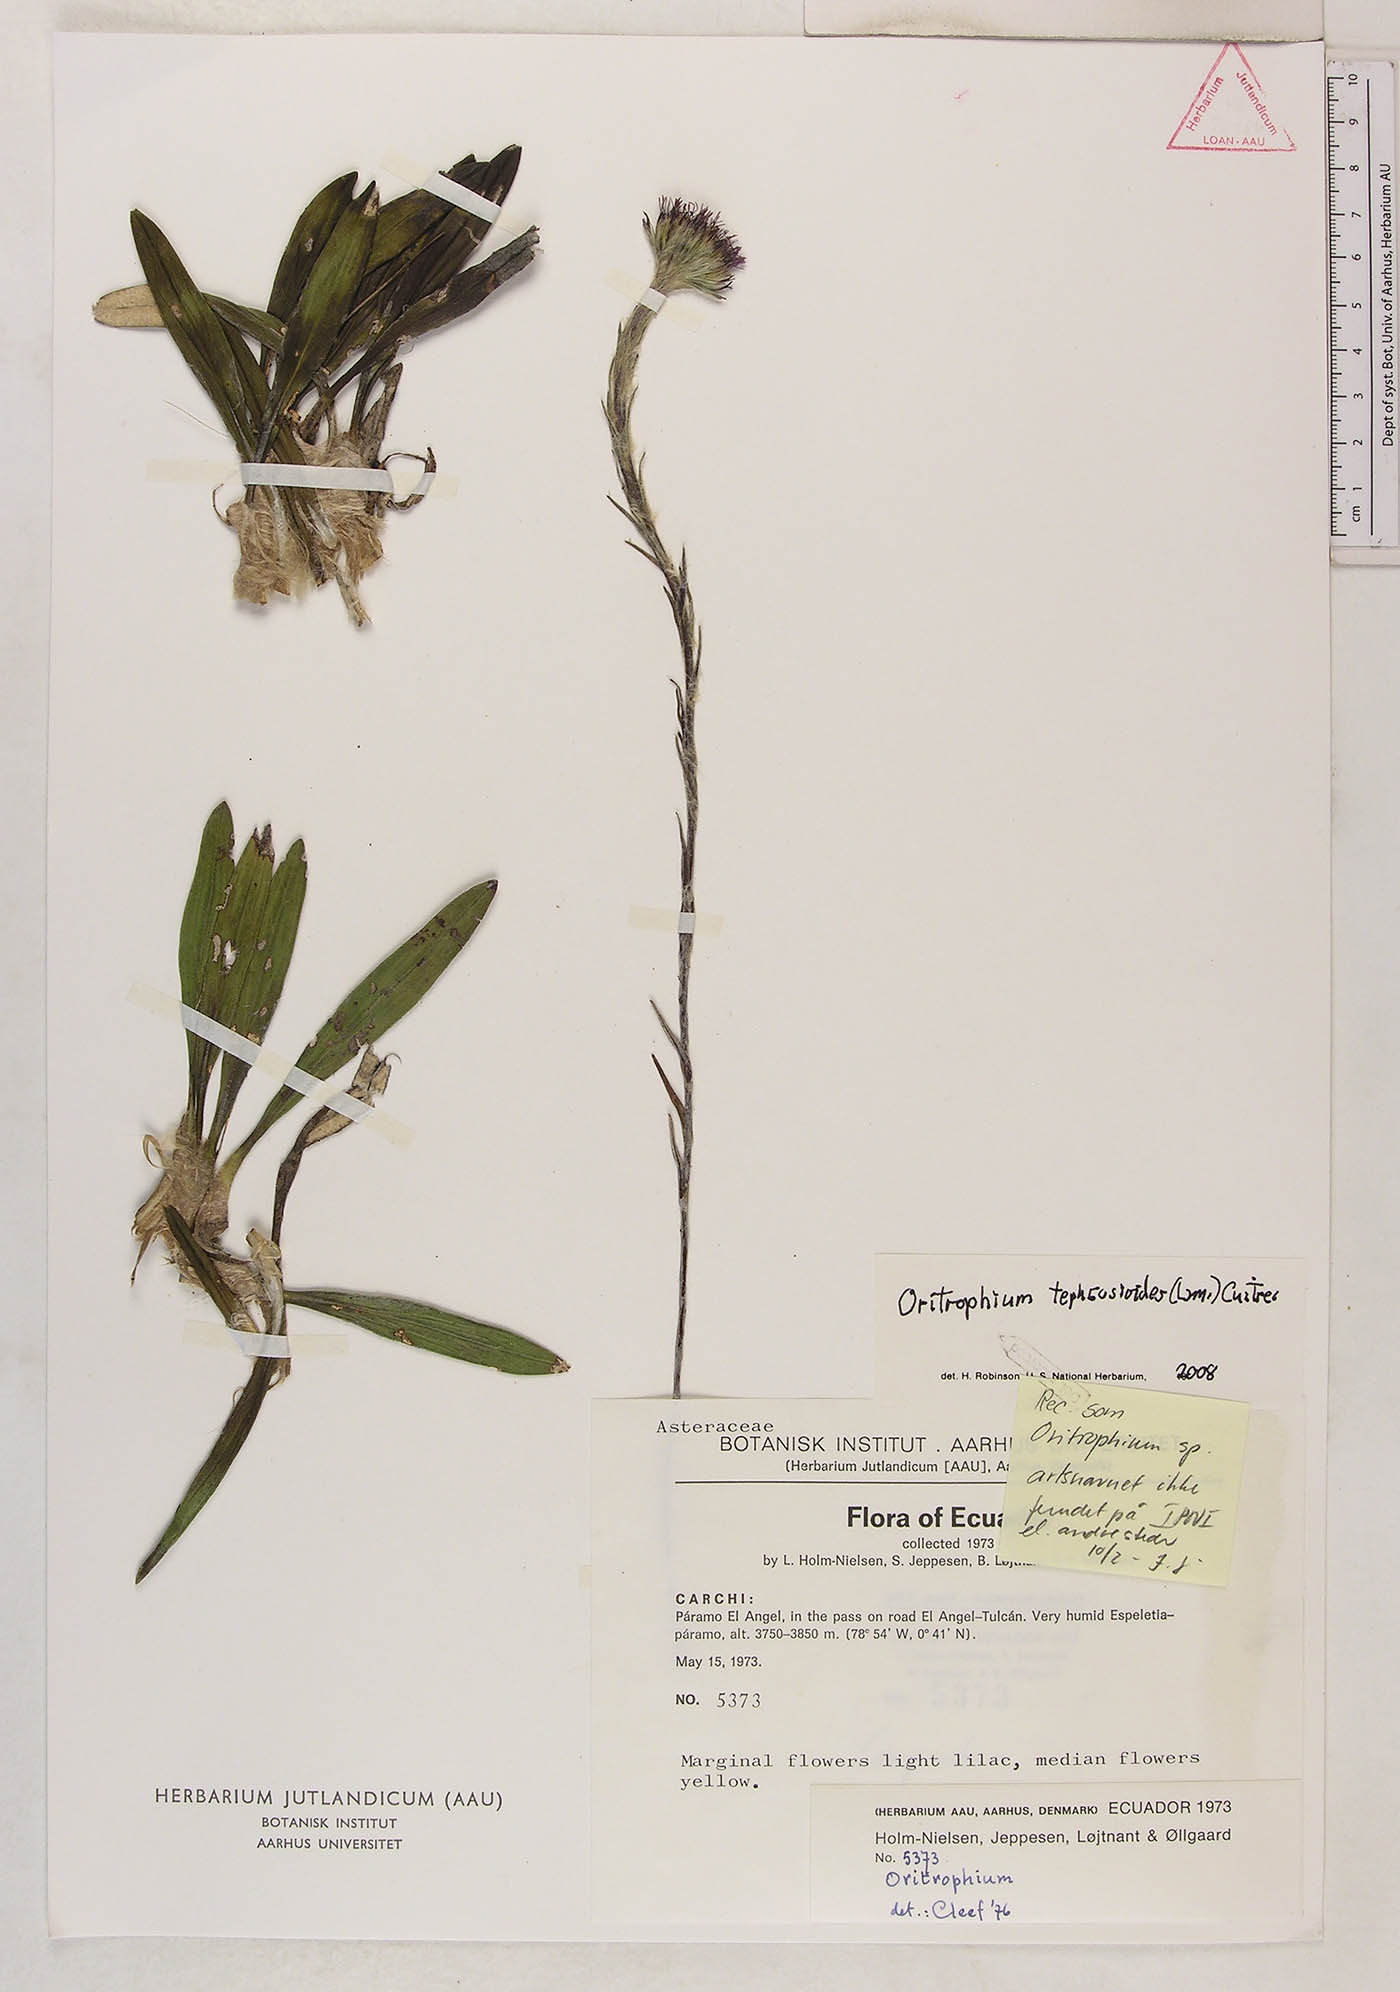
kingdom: Plantae
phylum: Tracheophyta
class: Magnoliopsida
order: Asterales
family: Asteraceae
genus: Oritrophium
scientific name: Oritrophium peruvianum
